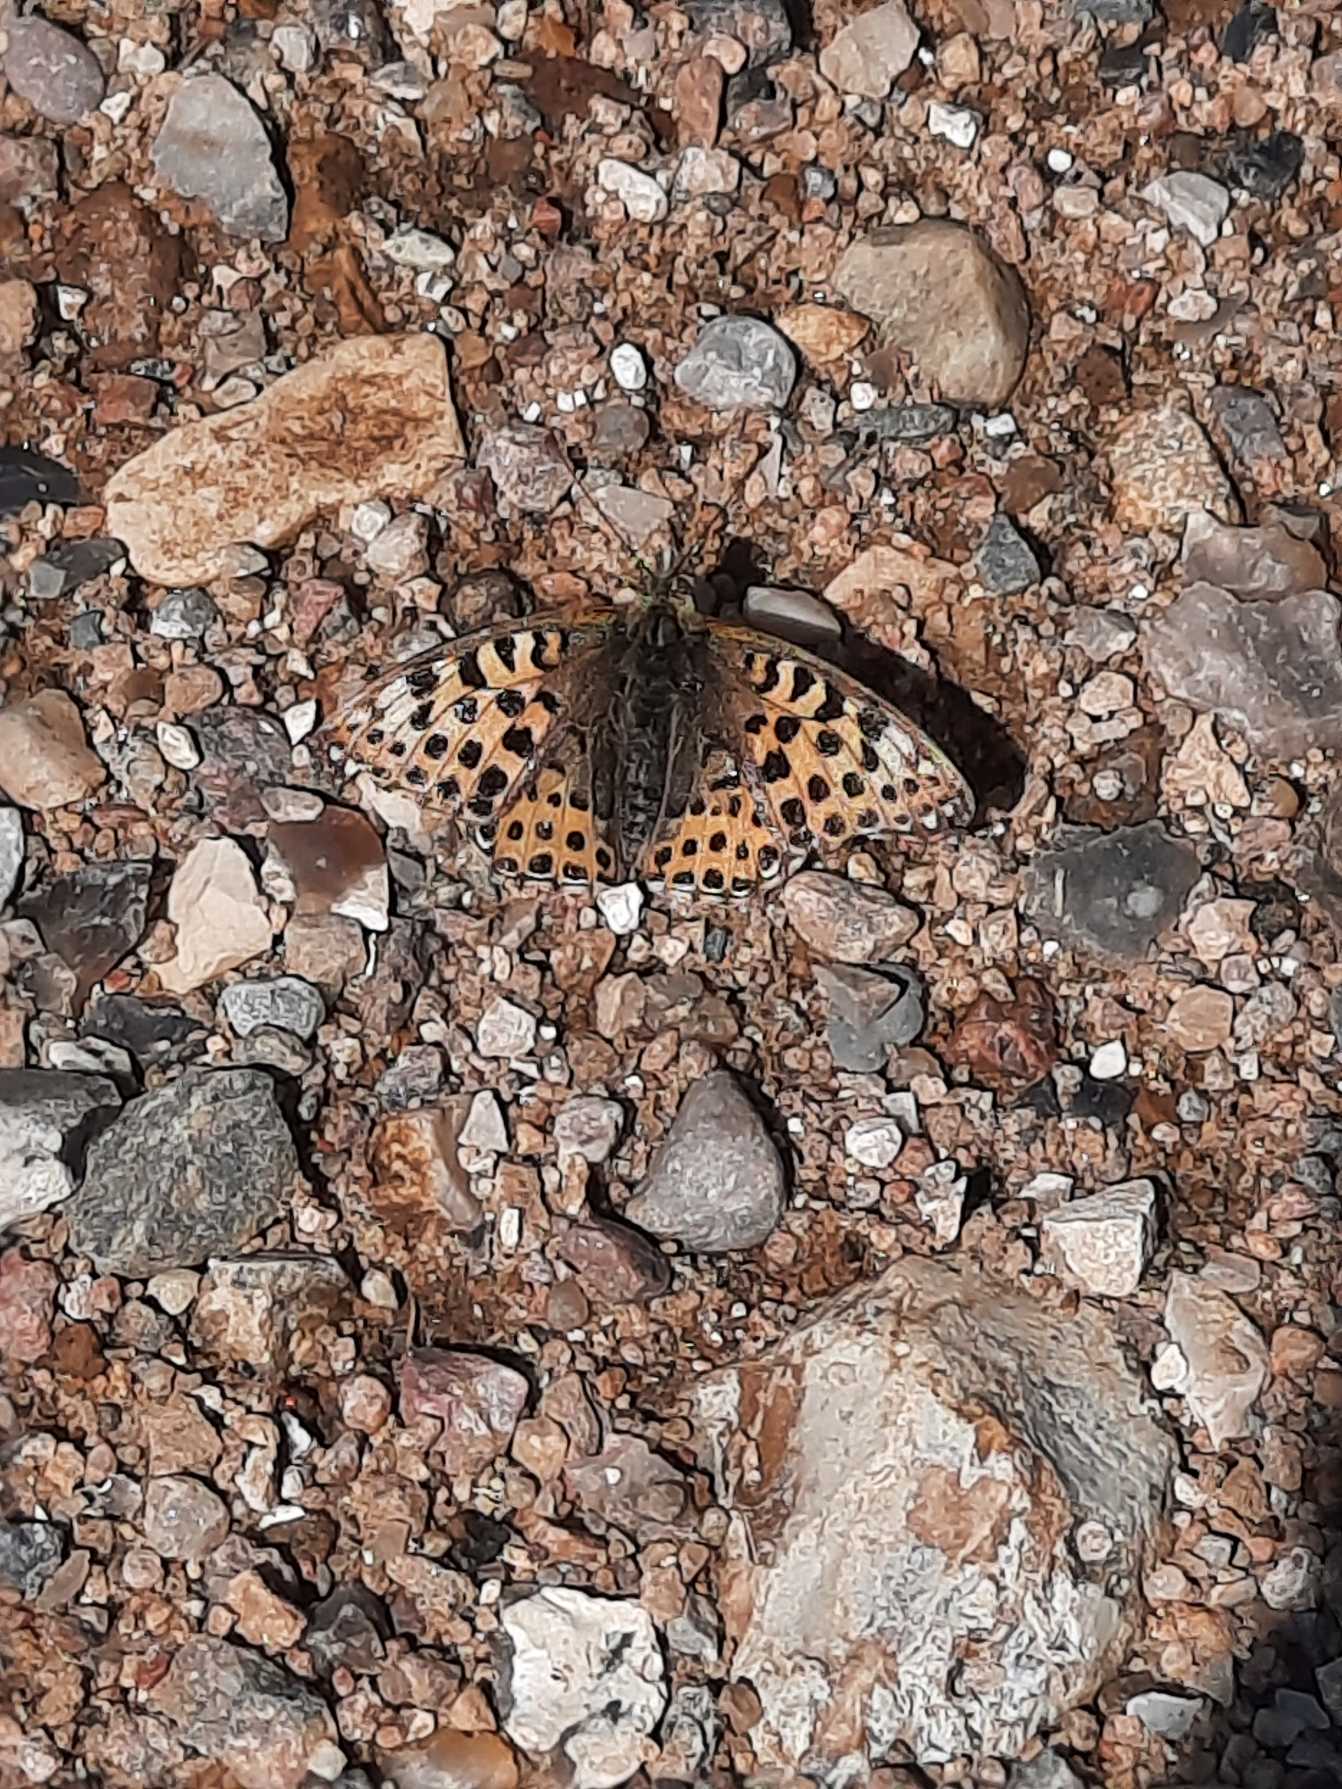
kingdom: Animalia
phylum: Arthropoda
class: Insecta
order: Lepidoptera
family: Nymphalidae
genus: Issoria
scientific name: Issoria lathonia
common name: Storplettet perlemorsommerfugl
